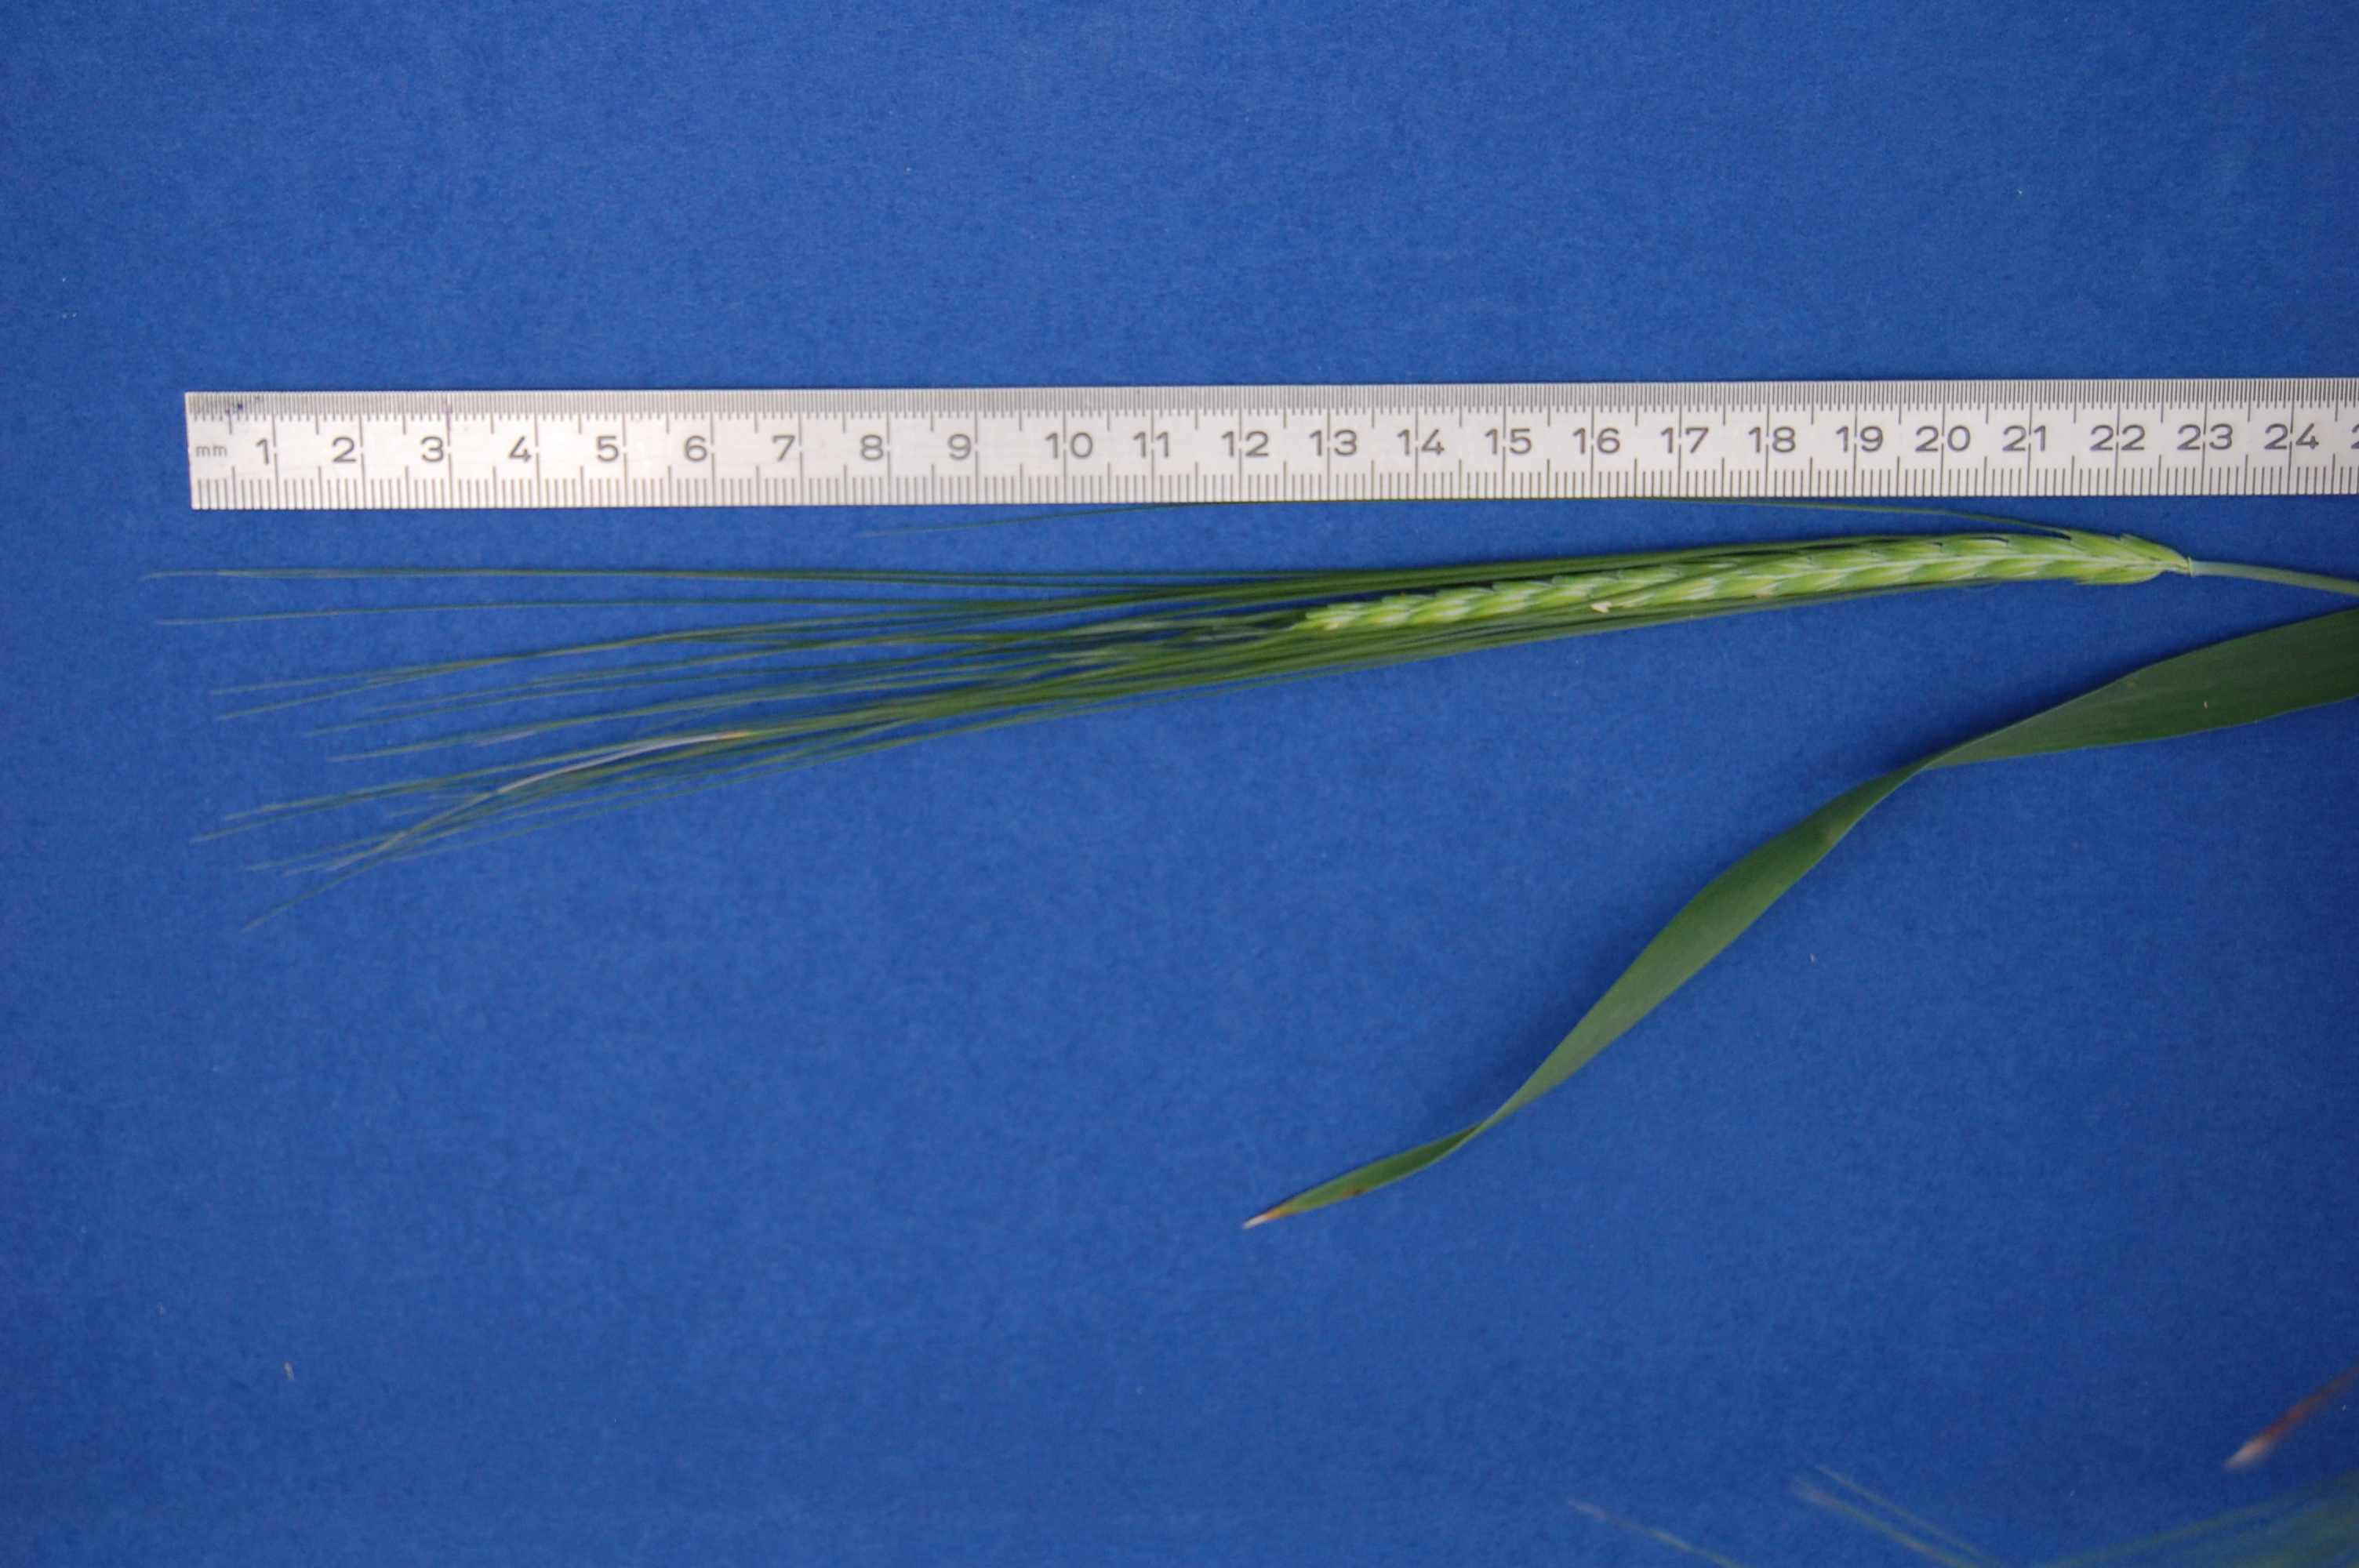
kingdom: Plantae
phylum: Tracheophyta
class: Liliopsida
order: Poales
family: Poaceae
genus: Hordeum
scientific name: Hordeum vulgare
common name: Common barley
